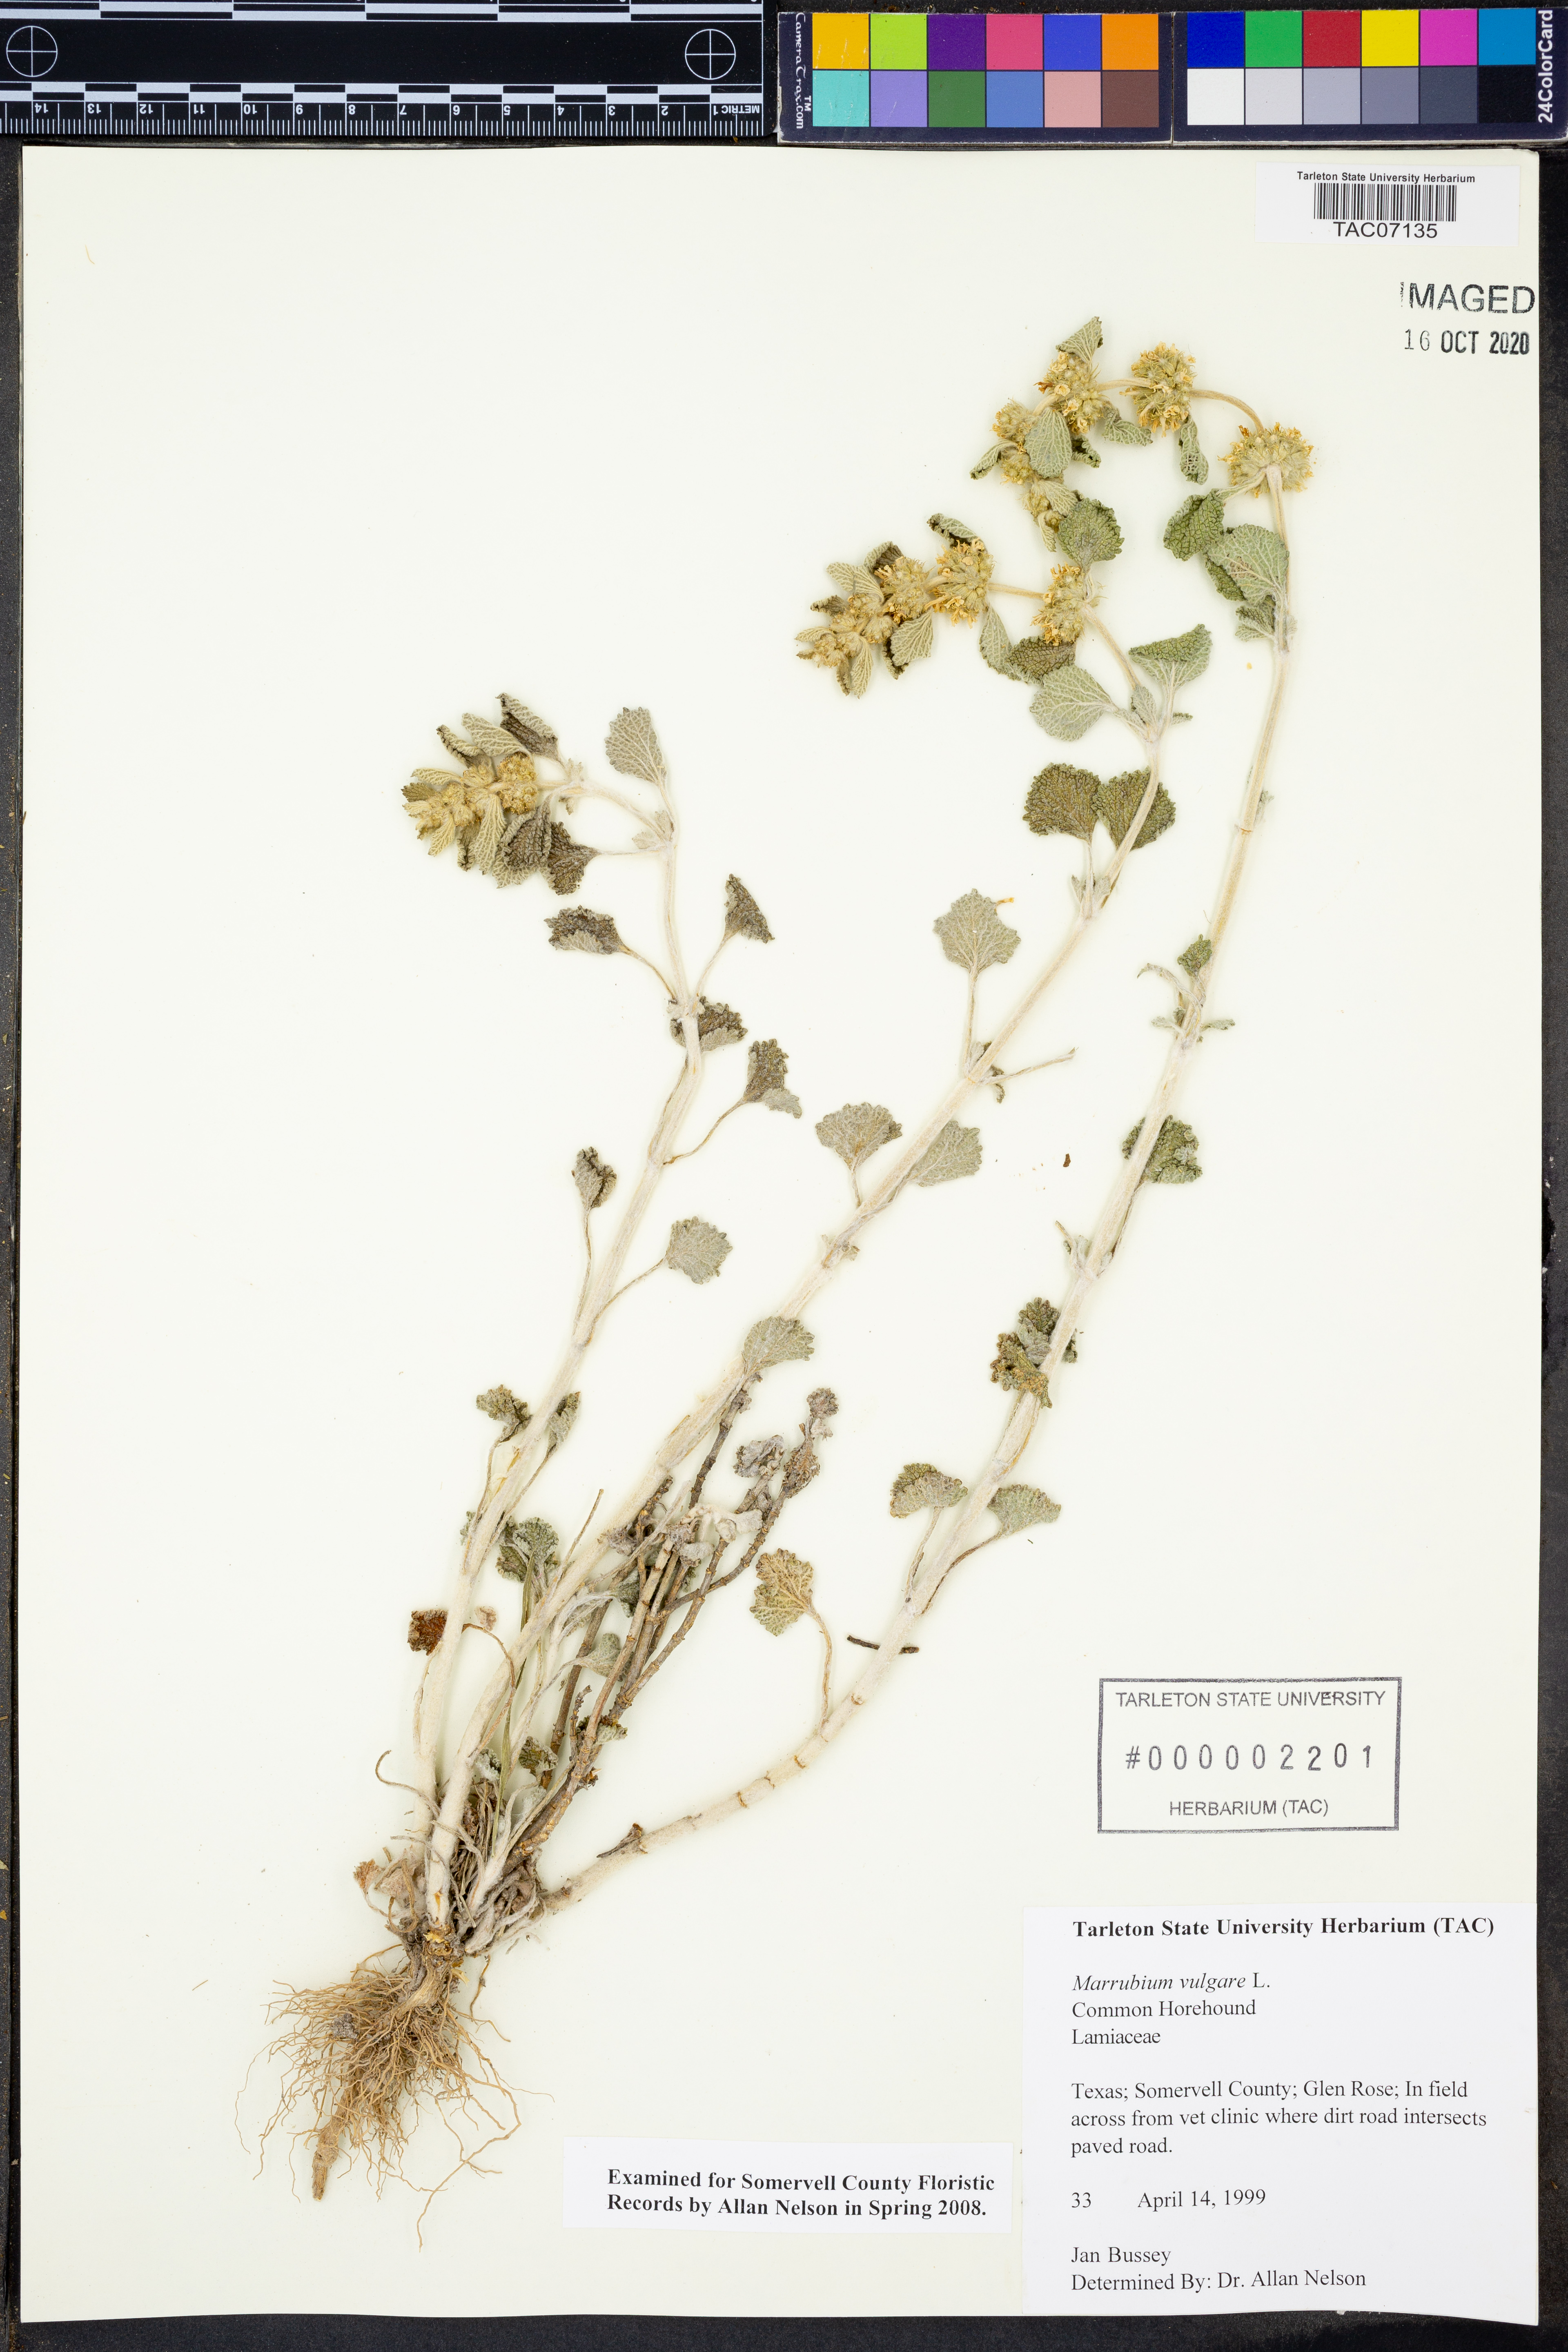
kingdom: Plantae
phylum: Tracheophyta
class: Magnoliopsida
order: Lamiales
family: Lamiaceae
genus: Marrubium
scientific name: Marrubium vulgare
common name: Horehound
